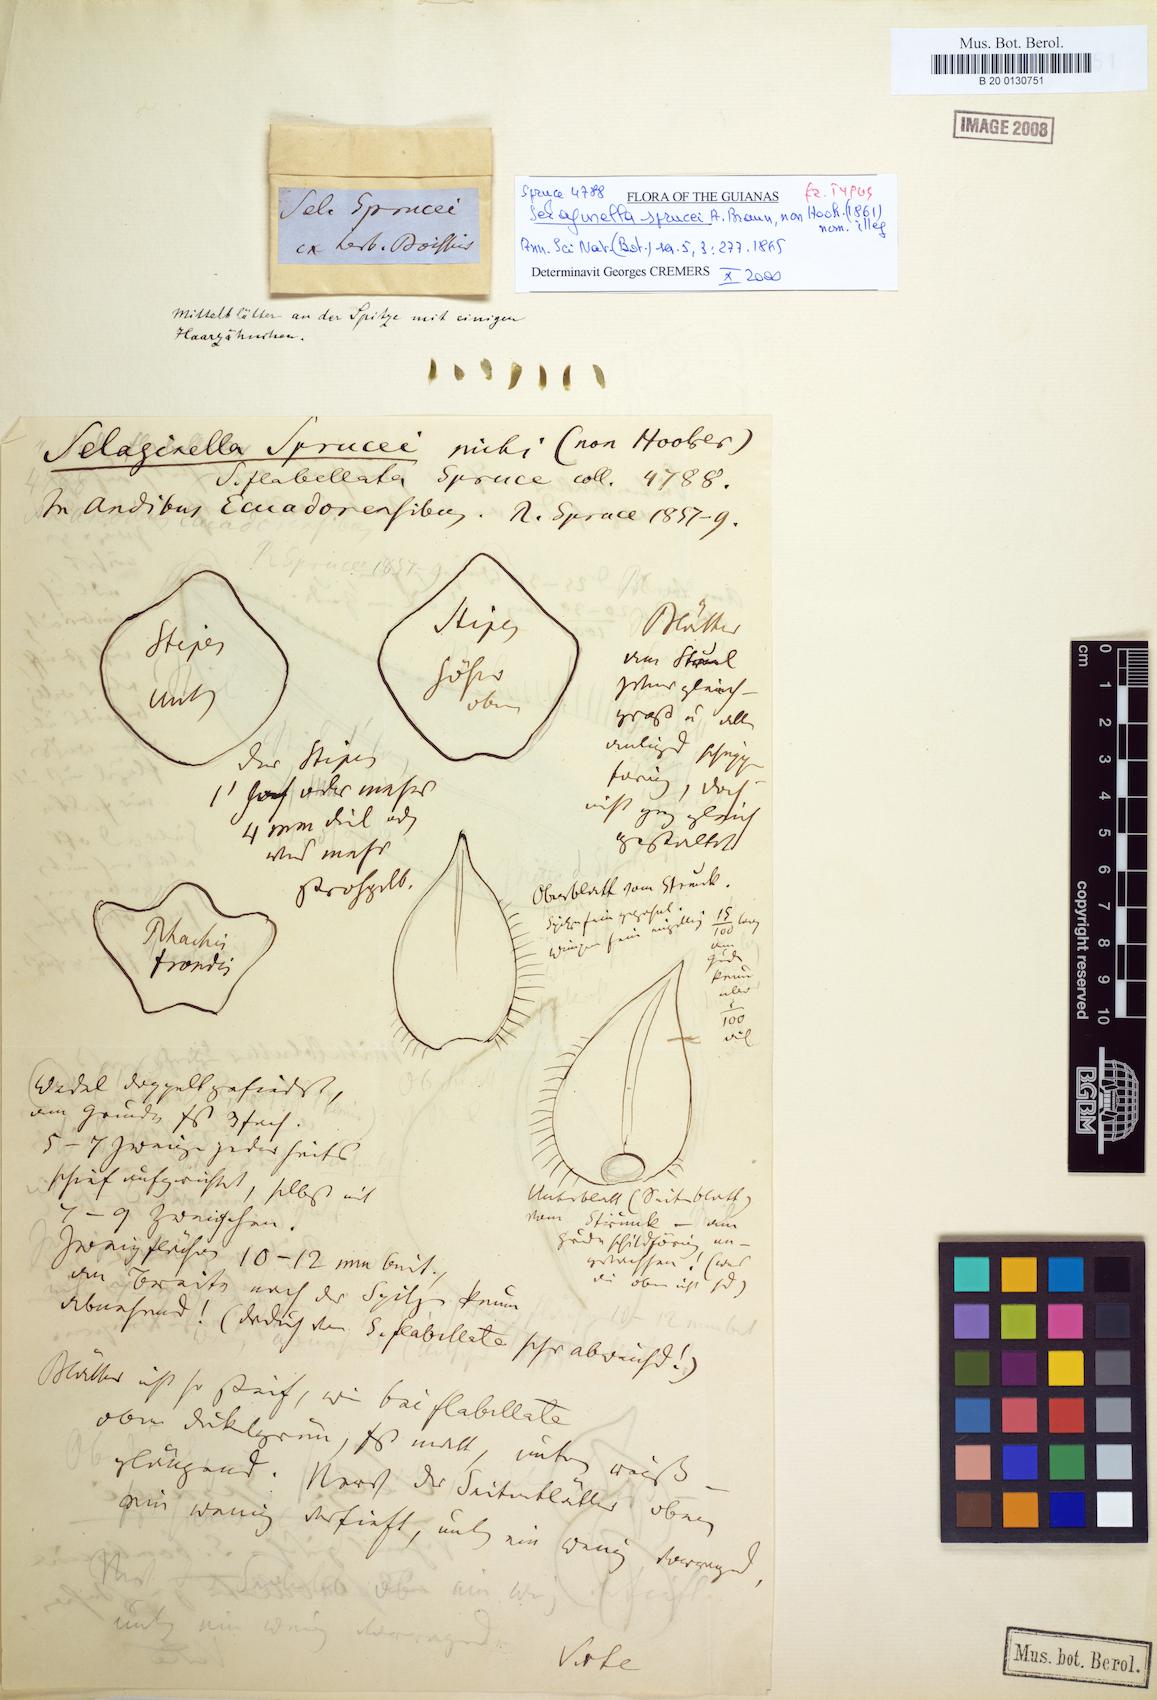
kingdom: Plantae
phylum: Tracheophyta
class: Lycopodiopsida
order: Selaginellales
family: Selaginellaceae
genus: Selaginella
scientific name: Selaginella praestans
